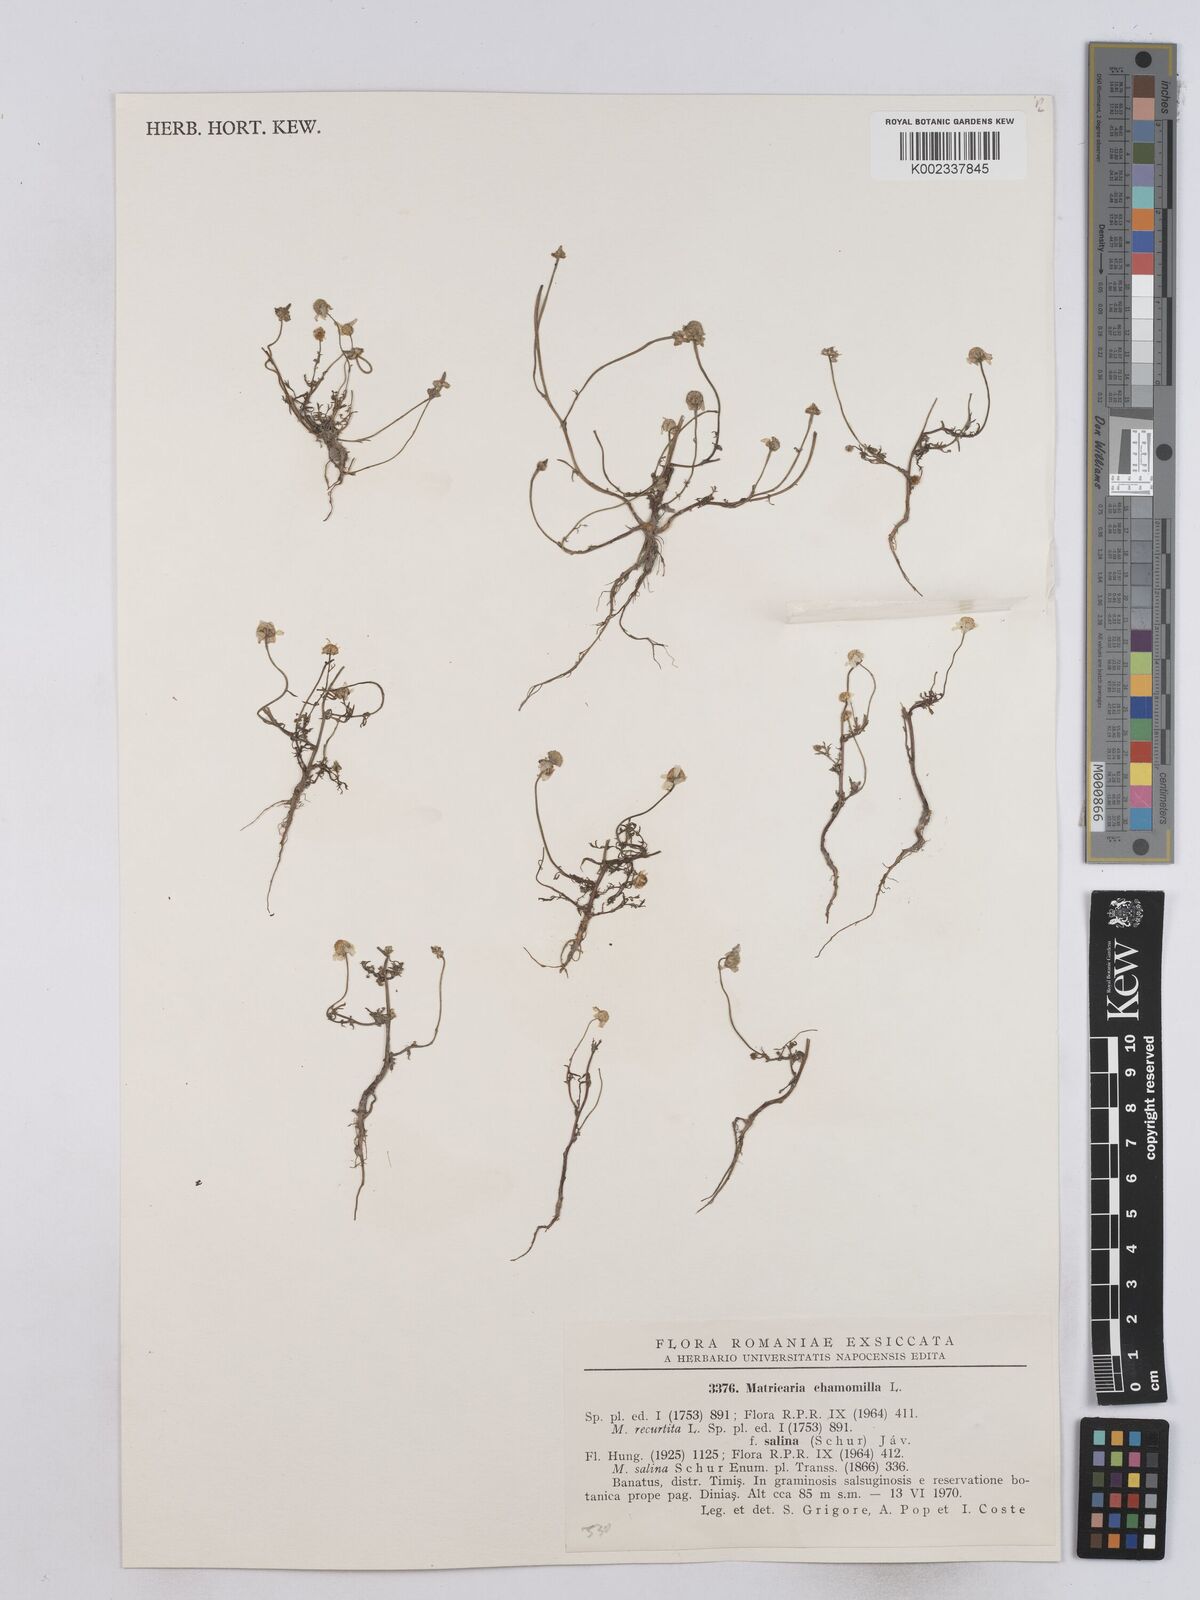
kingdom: Plantae
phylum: Tracheophyta
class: Magnoliopsida
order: Asterales
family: Asteraceae
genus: Matricaria
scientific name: Matricaria chamomilla
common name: Scented mayweed
